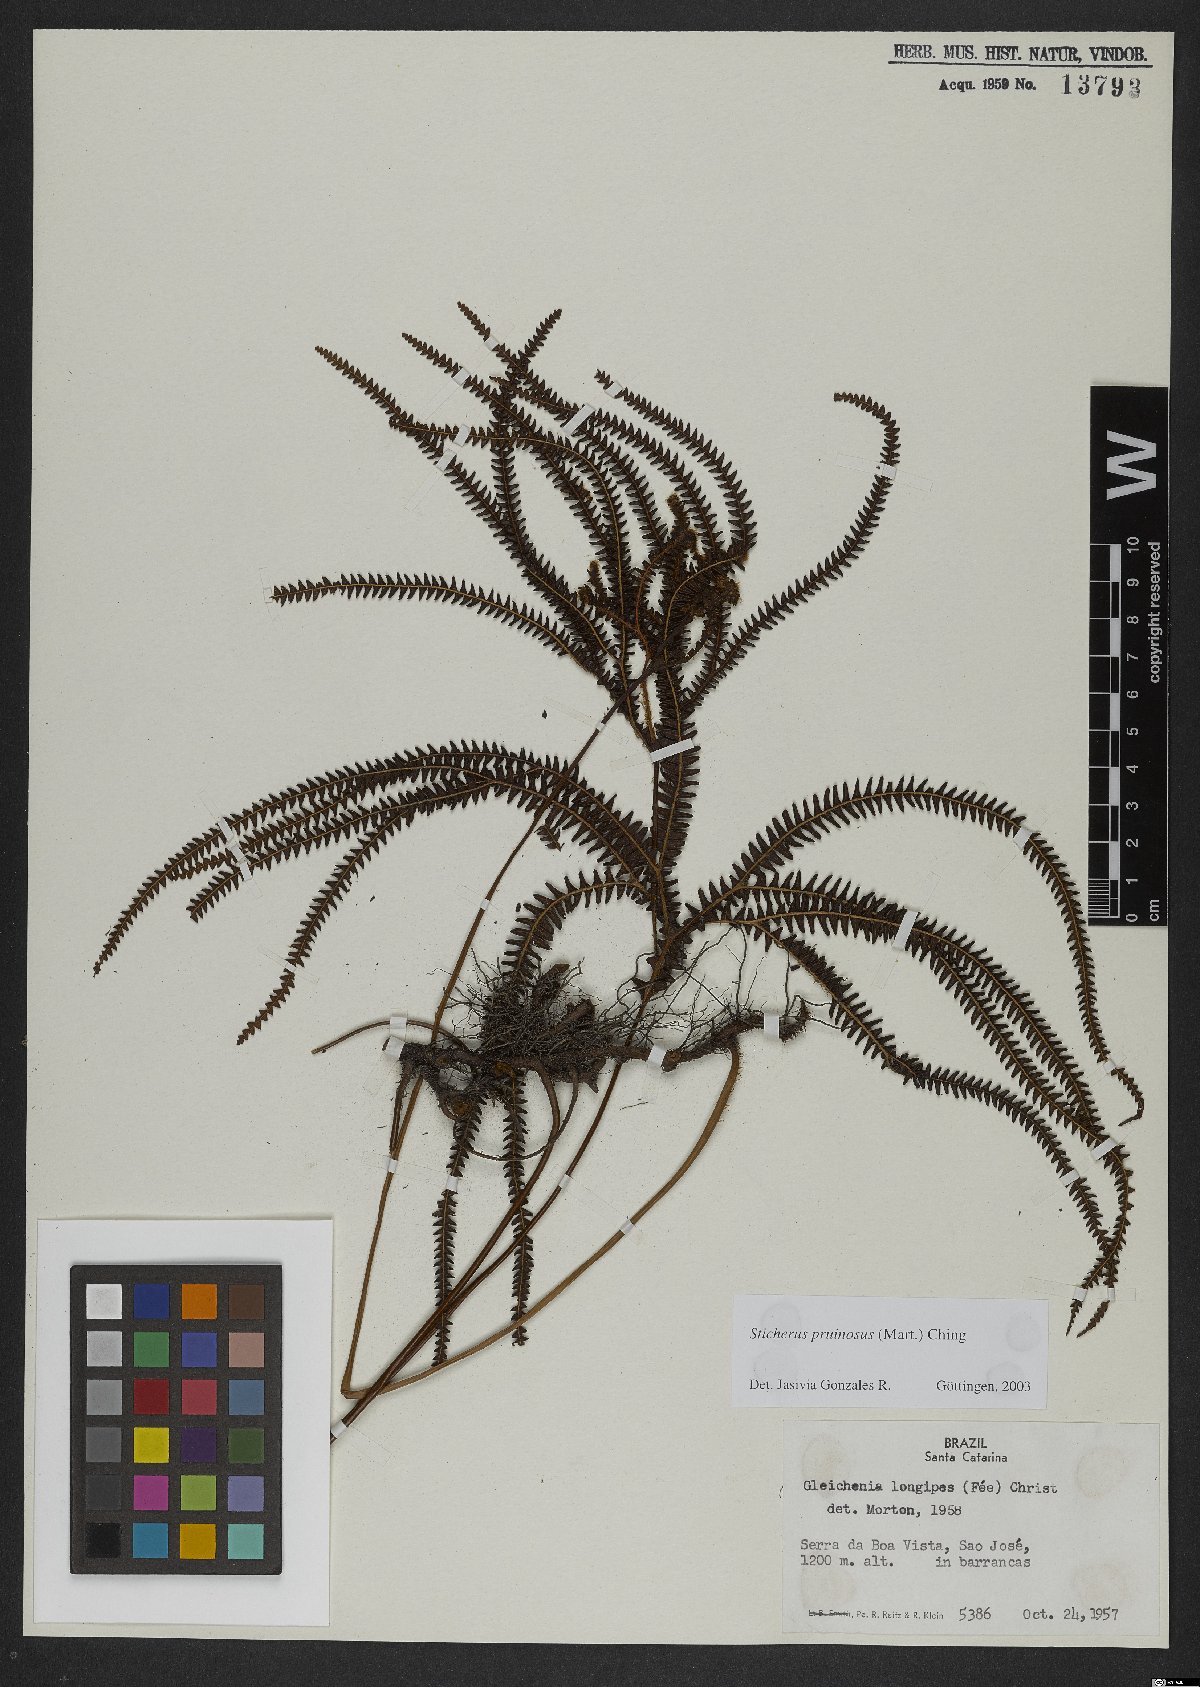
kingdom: Plantae
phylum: Tracheophyta
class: Polypodiopsida
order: Gleicheniales
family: Gleicheniaceae
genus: Sticherus
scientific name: Sticherus pruinosus
